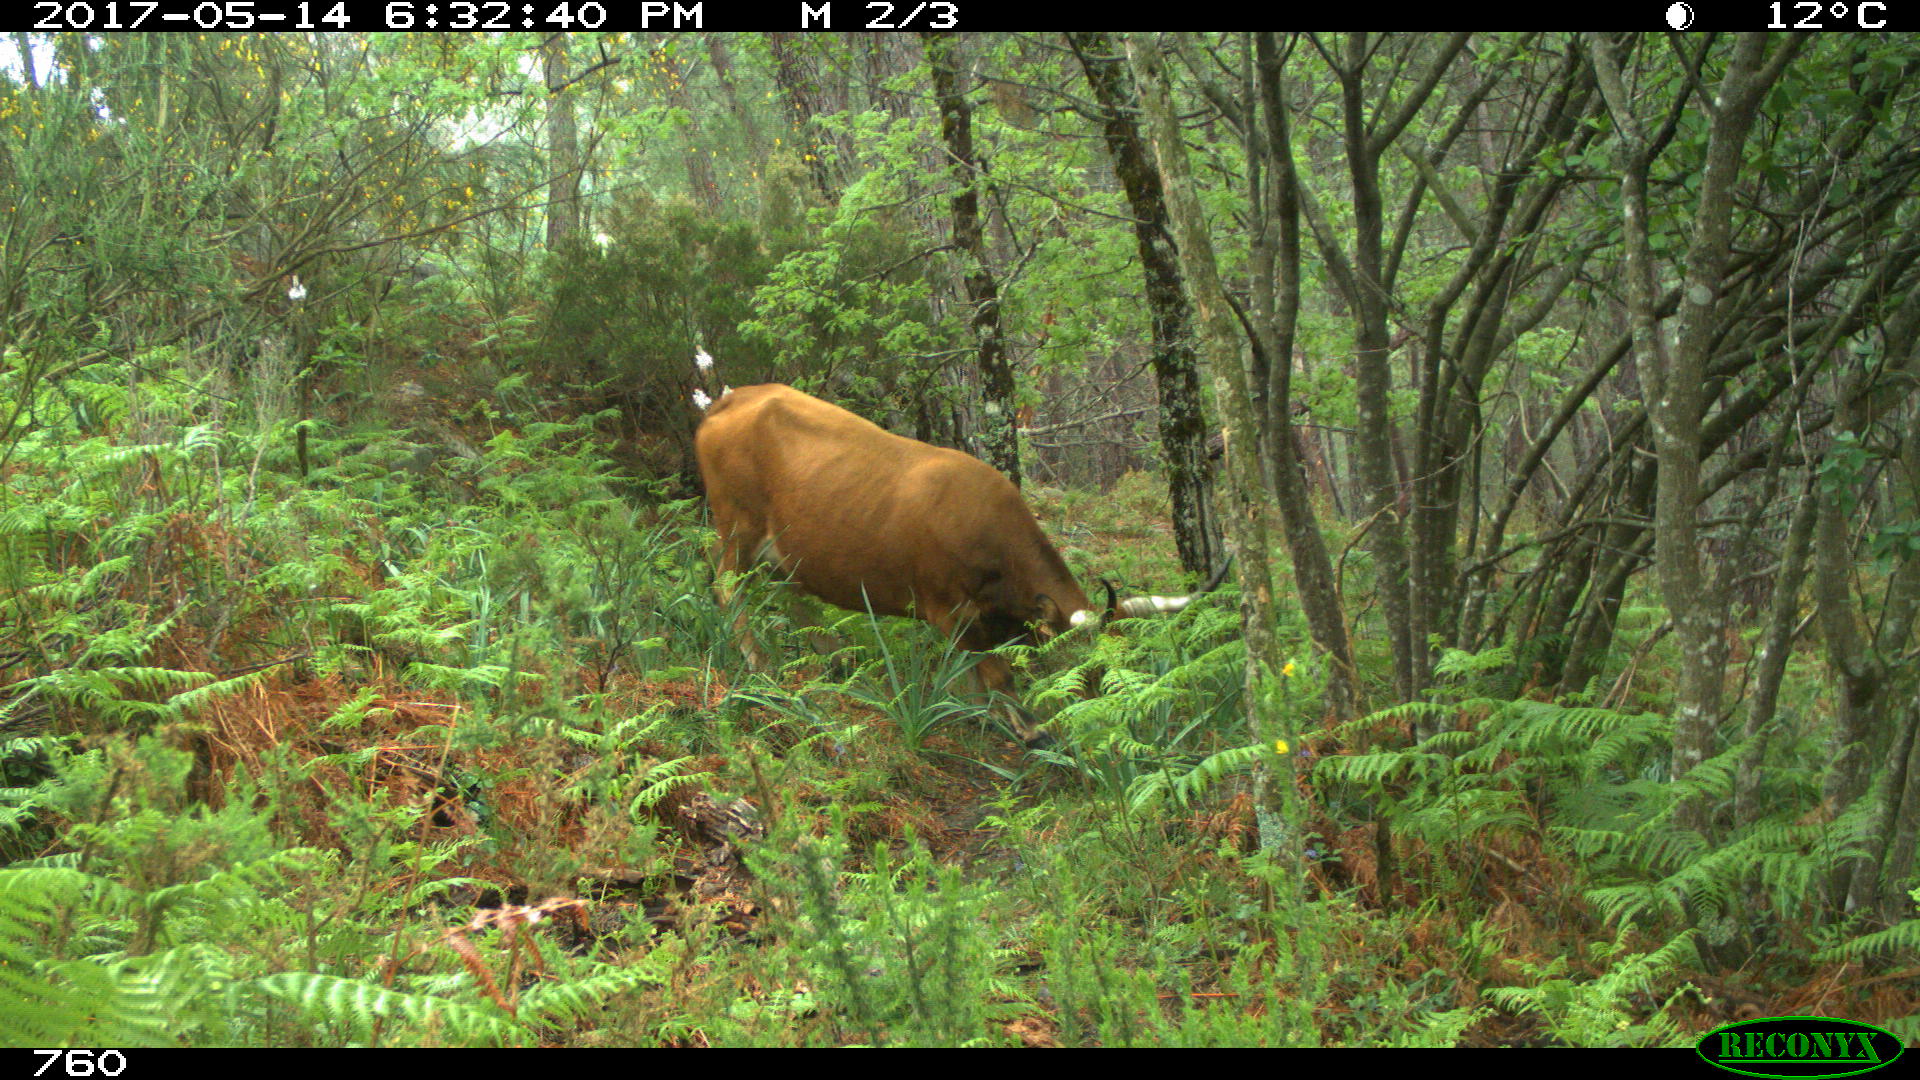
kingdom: Animalia
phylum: Chordata
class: Mammalia
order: Artiodactyla
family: Bovidae
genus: Bos
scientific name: Bos taurus
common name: Domesticated cattle
